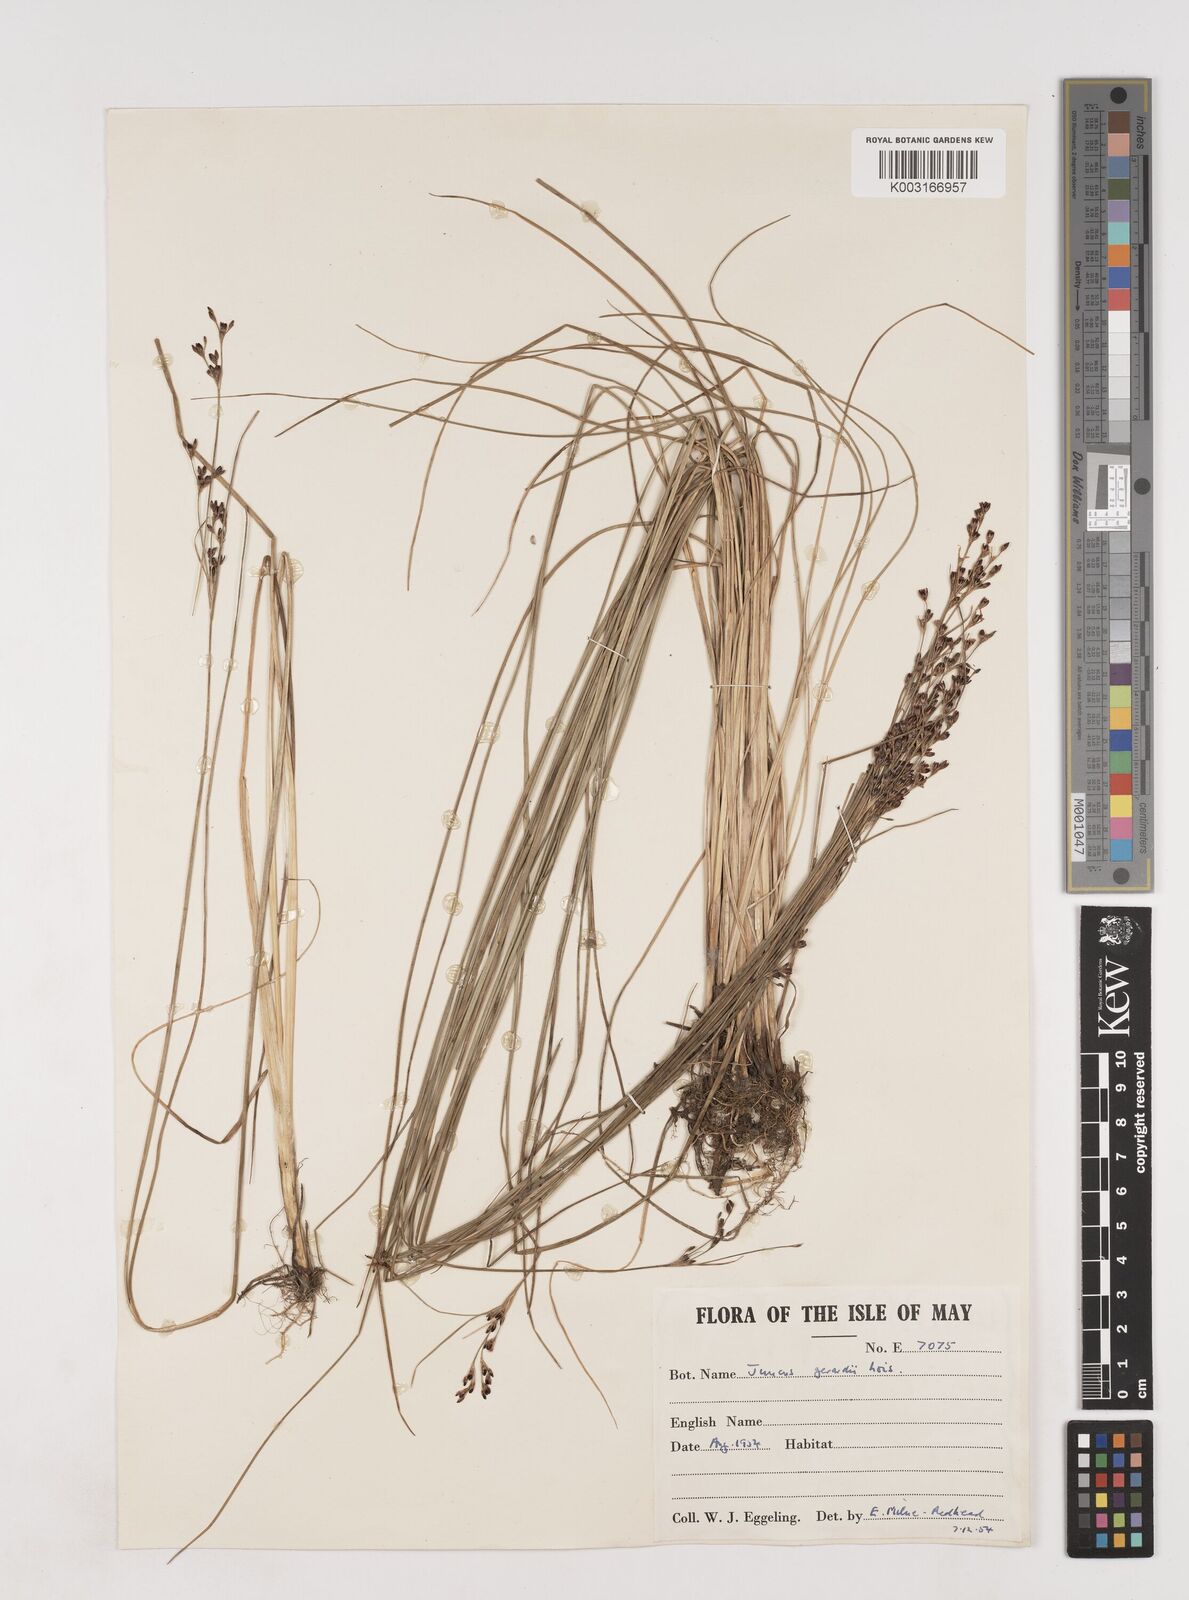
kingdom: Plantae
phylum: Tracheophyta
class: Liliopsida
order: Poales
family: Juncaceae
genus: Juncus
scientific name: Juncus gerardi
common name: Saltmarsh rush
